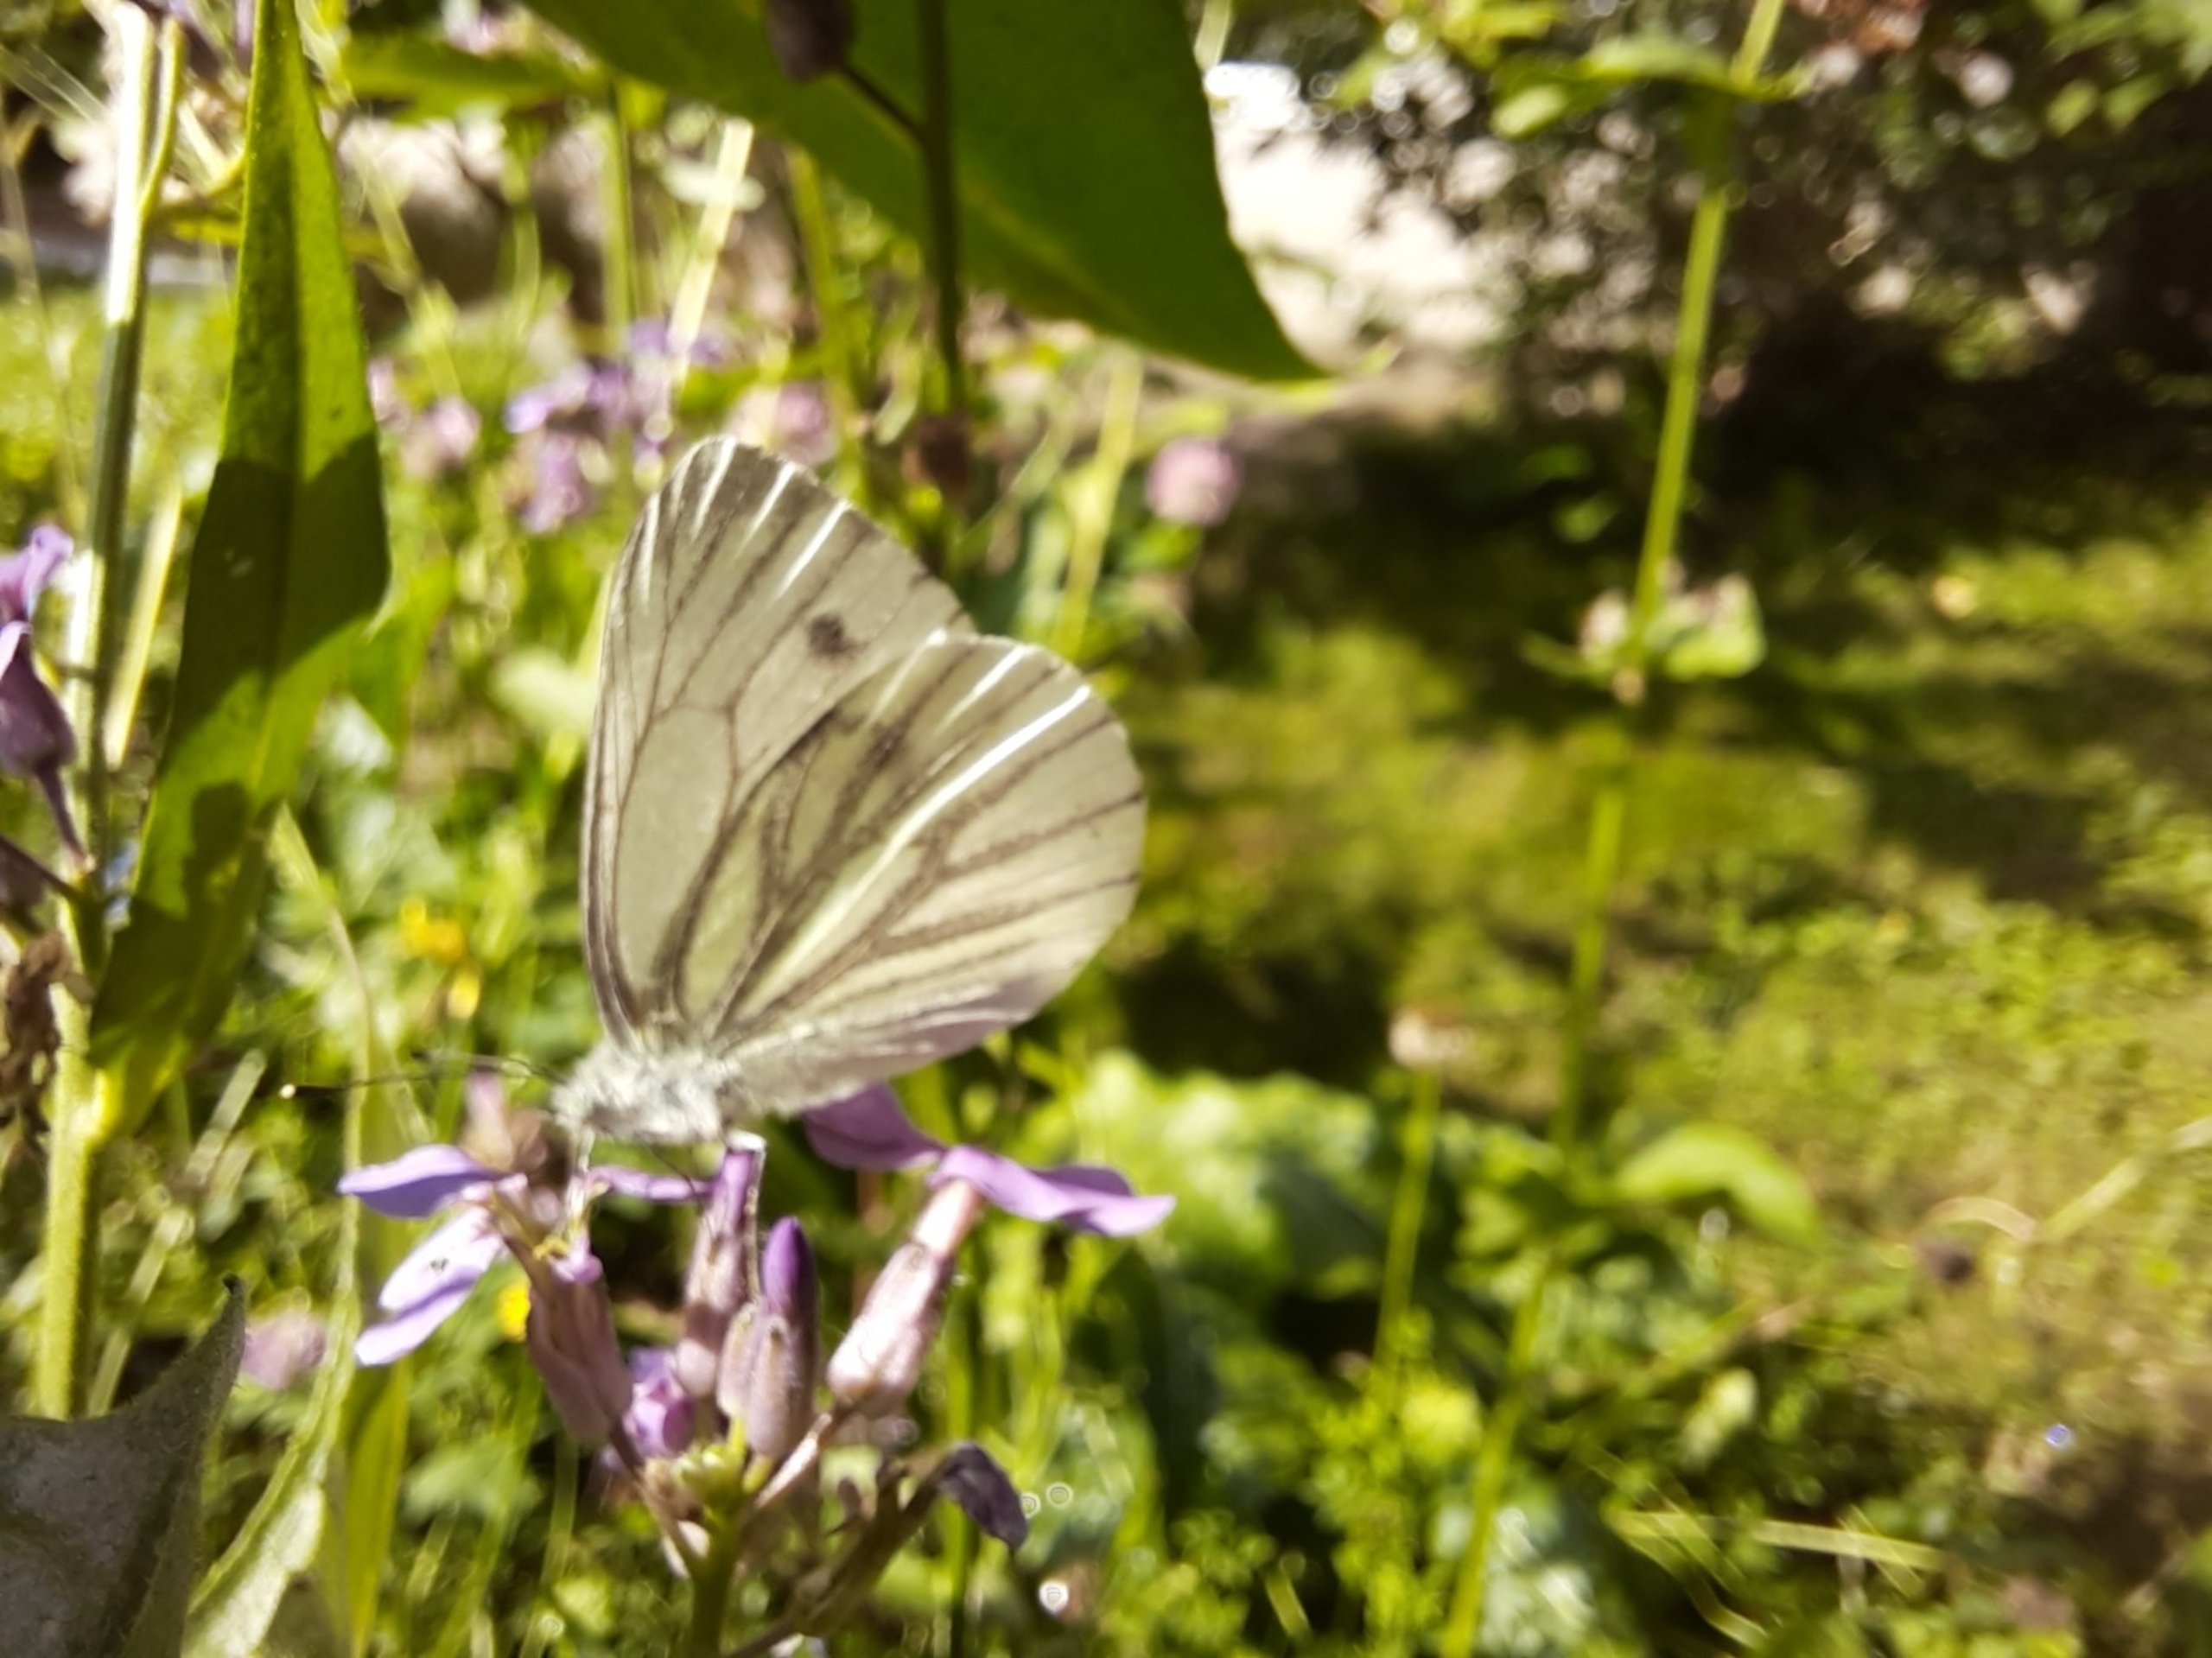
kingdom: Animalia
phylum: Arthropoda
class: Insecta
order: Lepidoptera
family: Pieridae
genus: Pieris
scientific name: Pieris napi
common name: Grønåret kålsommerfugl
